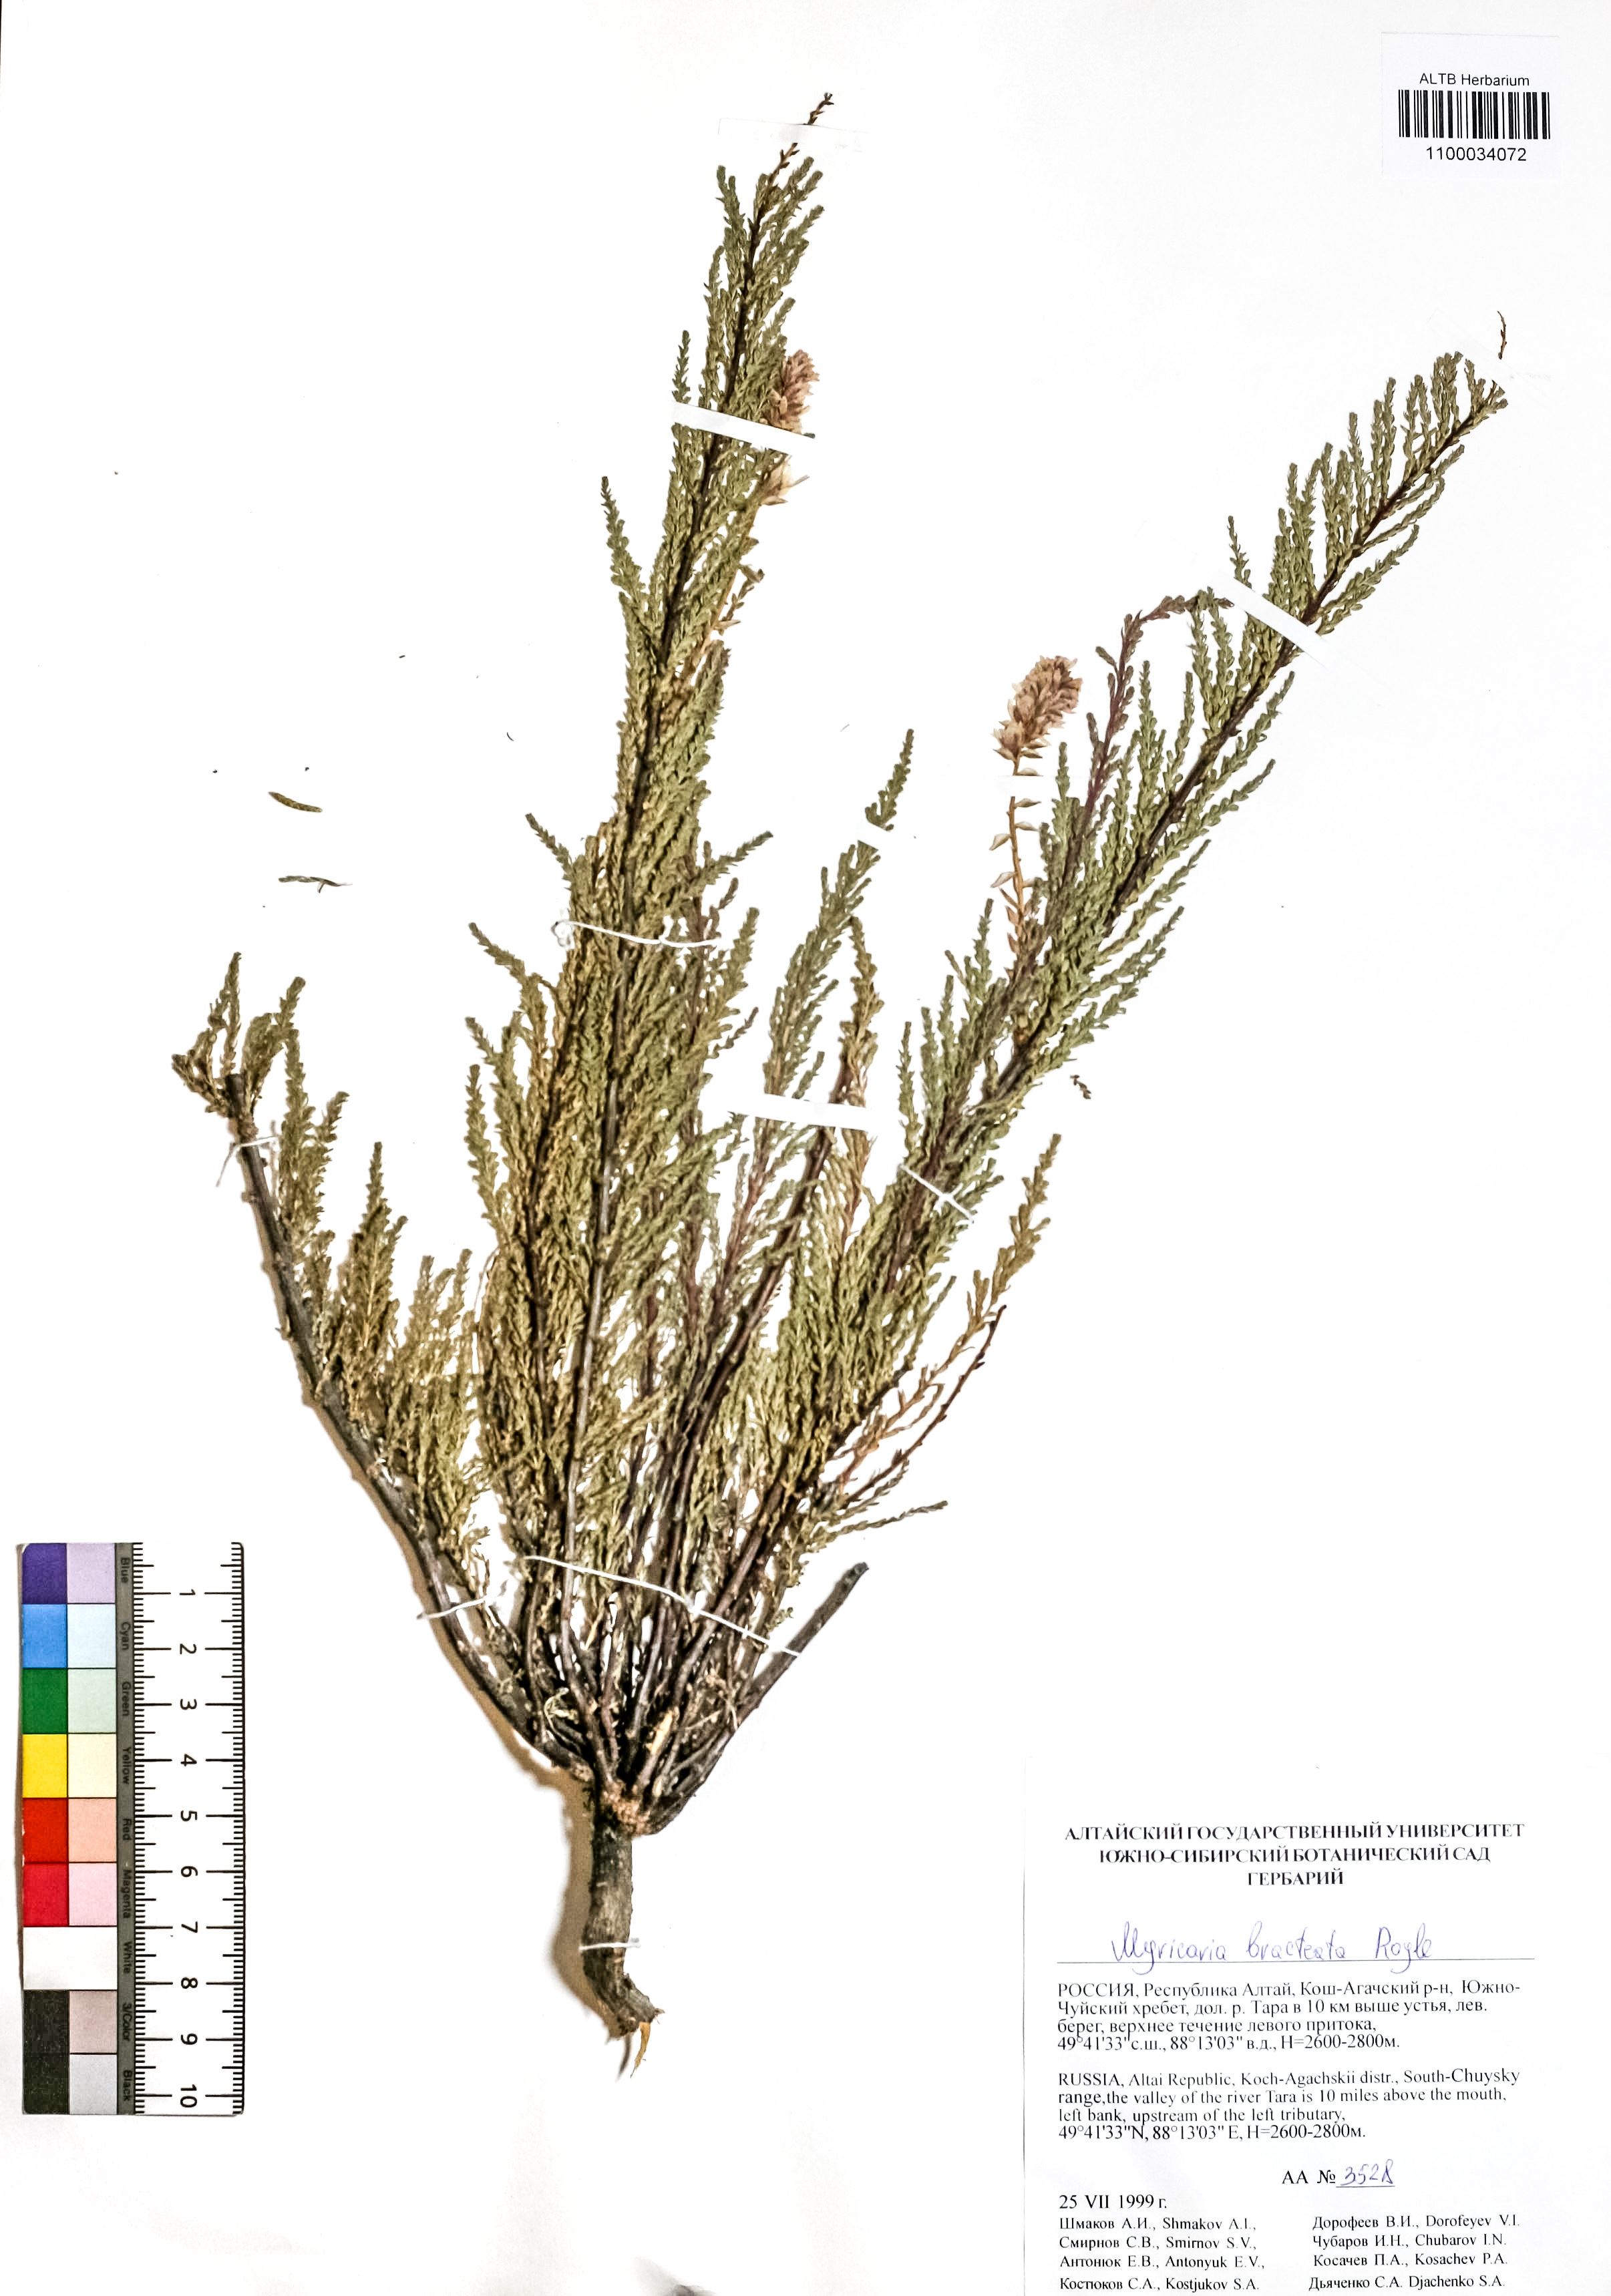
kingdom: Plantae
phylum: Tracheophyta
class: Magnoliopsida
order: Caryophyllales
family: Tamaricaceae
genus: Myricaria
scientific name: Myricaria bracteata
